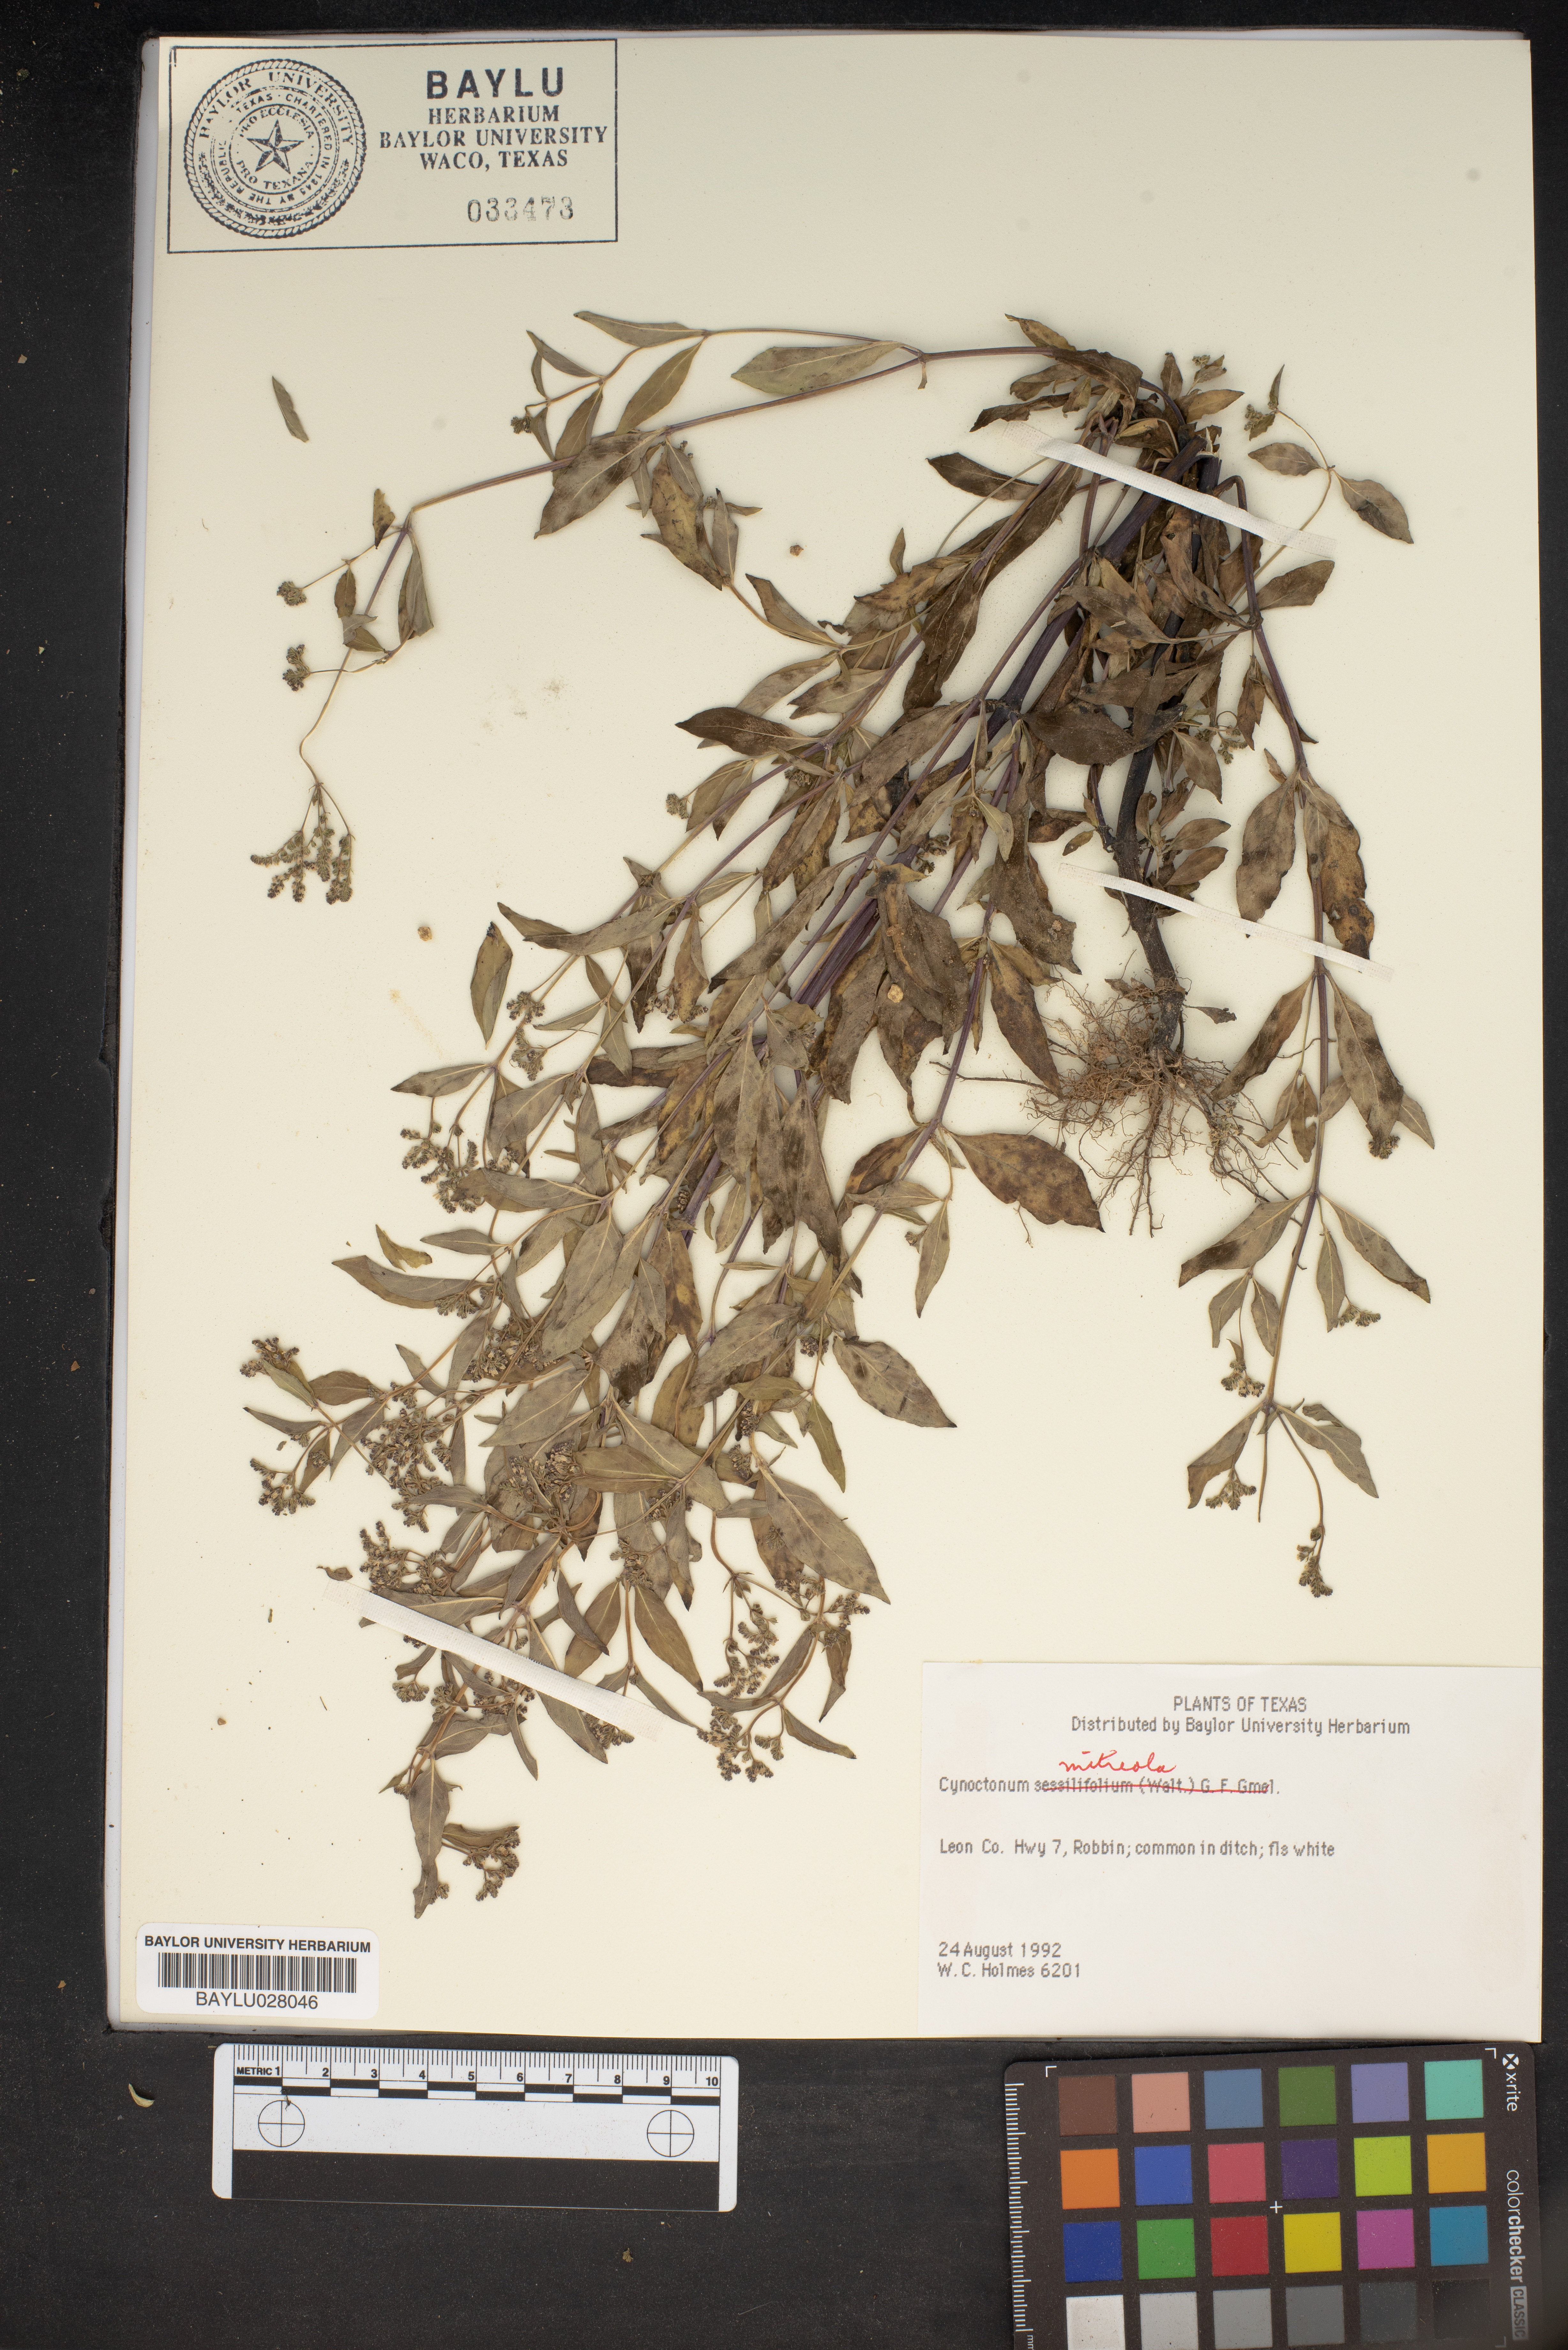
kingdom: Plantae
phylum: Tracheophyta
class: Magnoliopsida
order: Gentianales
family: Loganiaceae
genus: Mitreola
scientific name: Mitreola petiolata
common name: Lax hornpod
